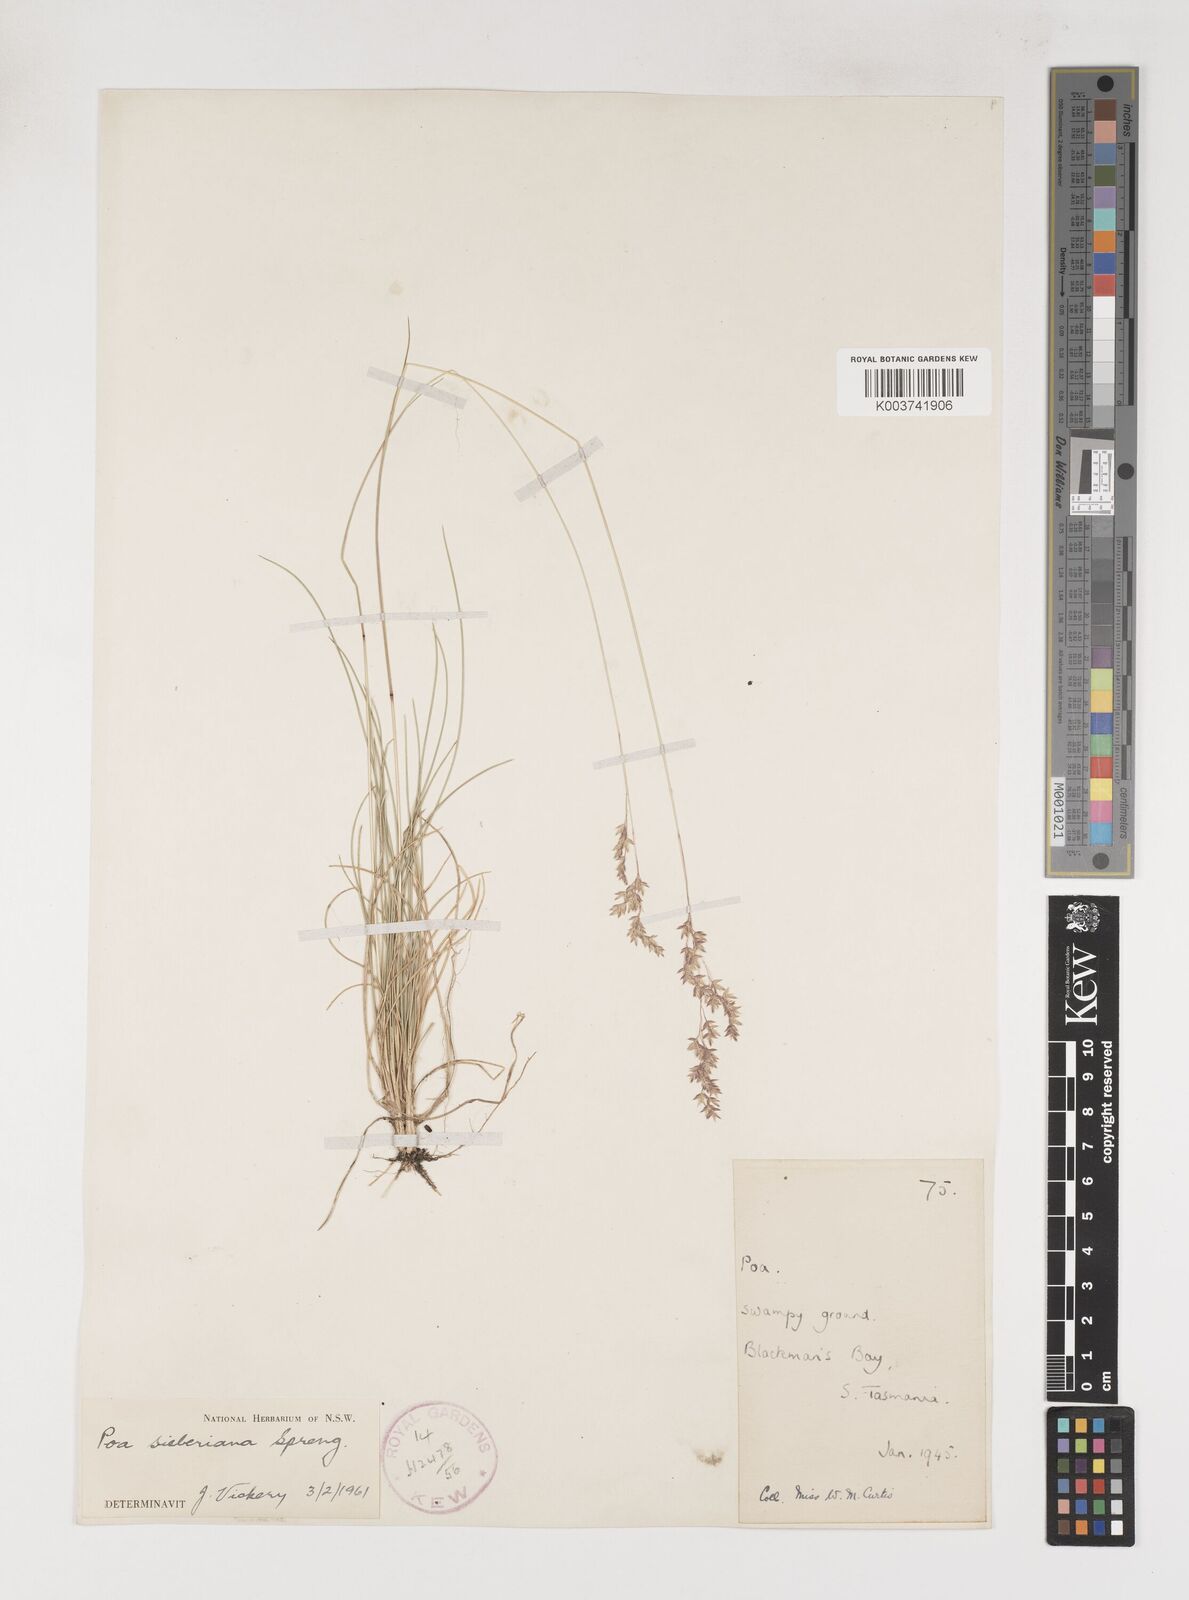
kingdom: Plantae
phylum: Tracheophyta
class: Liliopsida
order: Poales
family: Poaceae
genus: Poa
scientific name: Poa sieberiana
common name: Tussock poa
